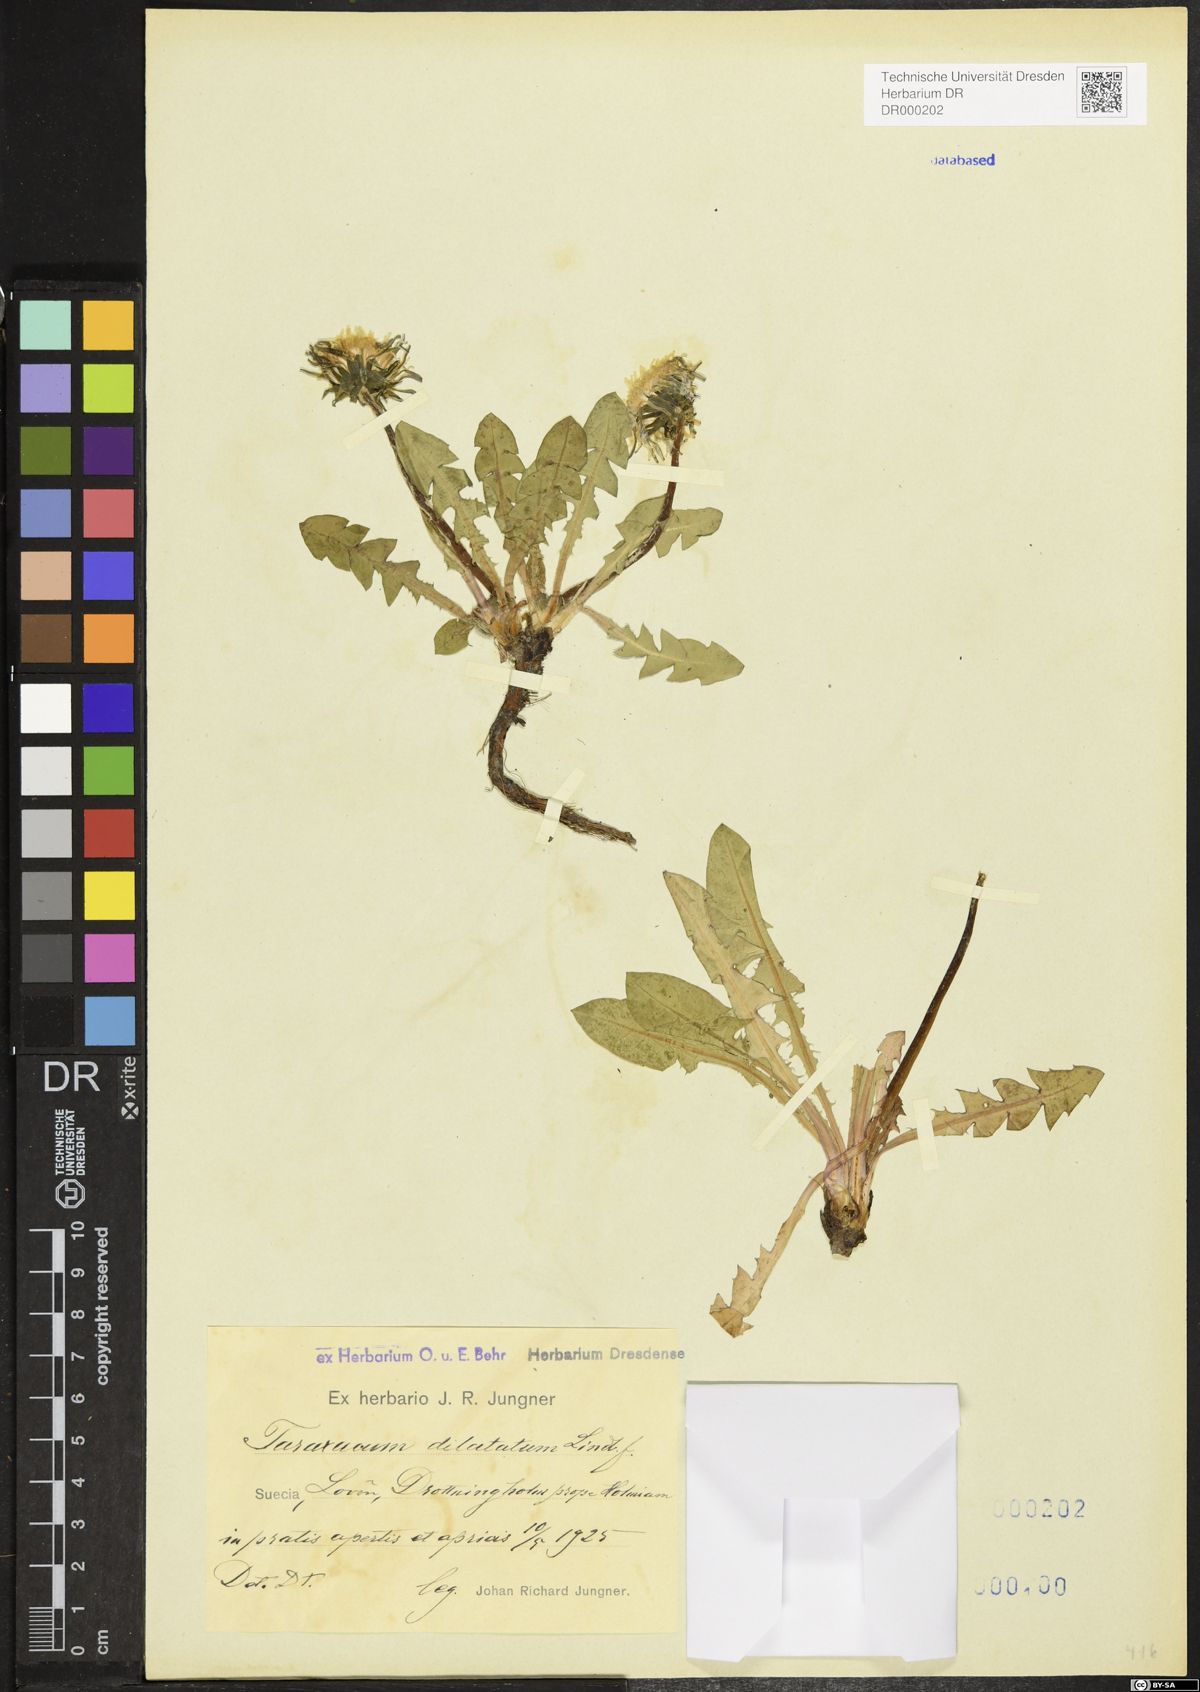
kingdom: Plantae
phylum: Tracheophyta
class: Magnoliopsida
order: Asterales
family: Asteraceae
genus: Taraxacum
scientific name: Taraxacum dilatatum
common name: Grassland dandelion
